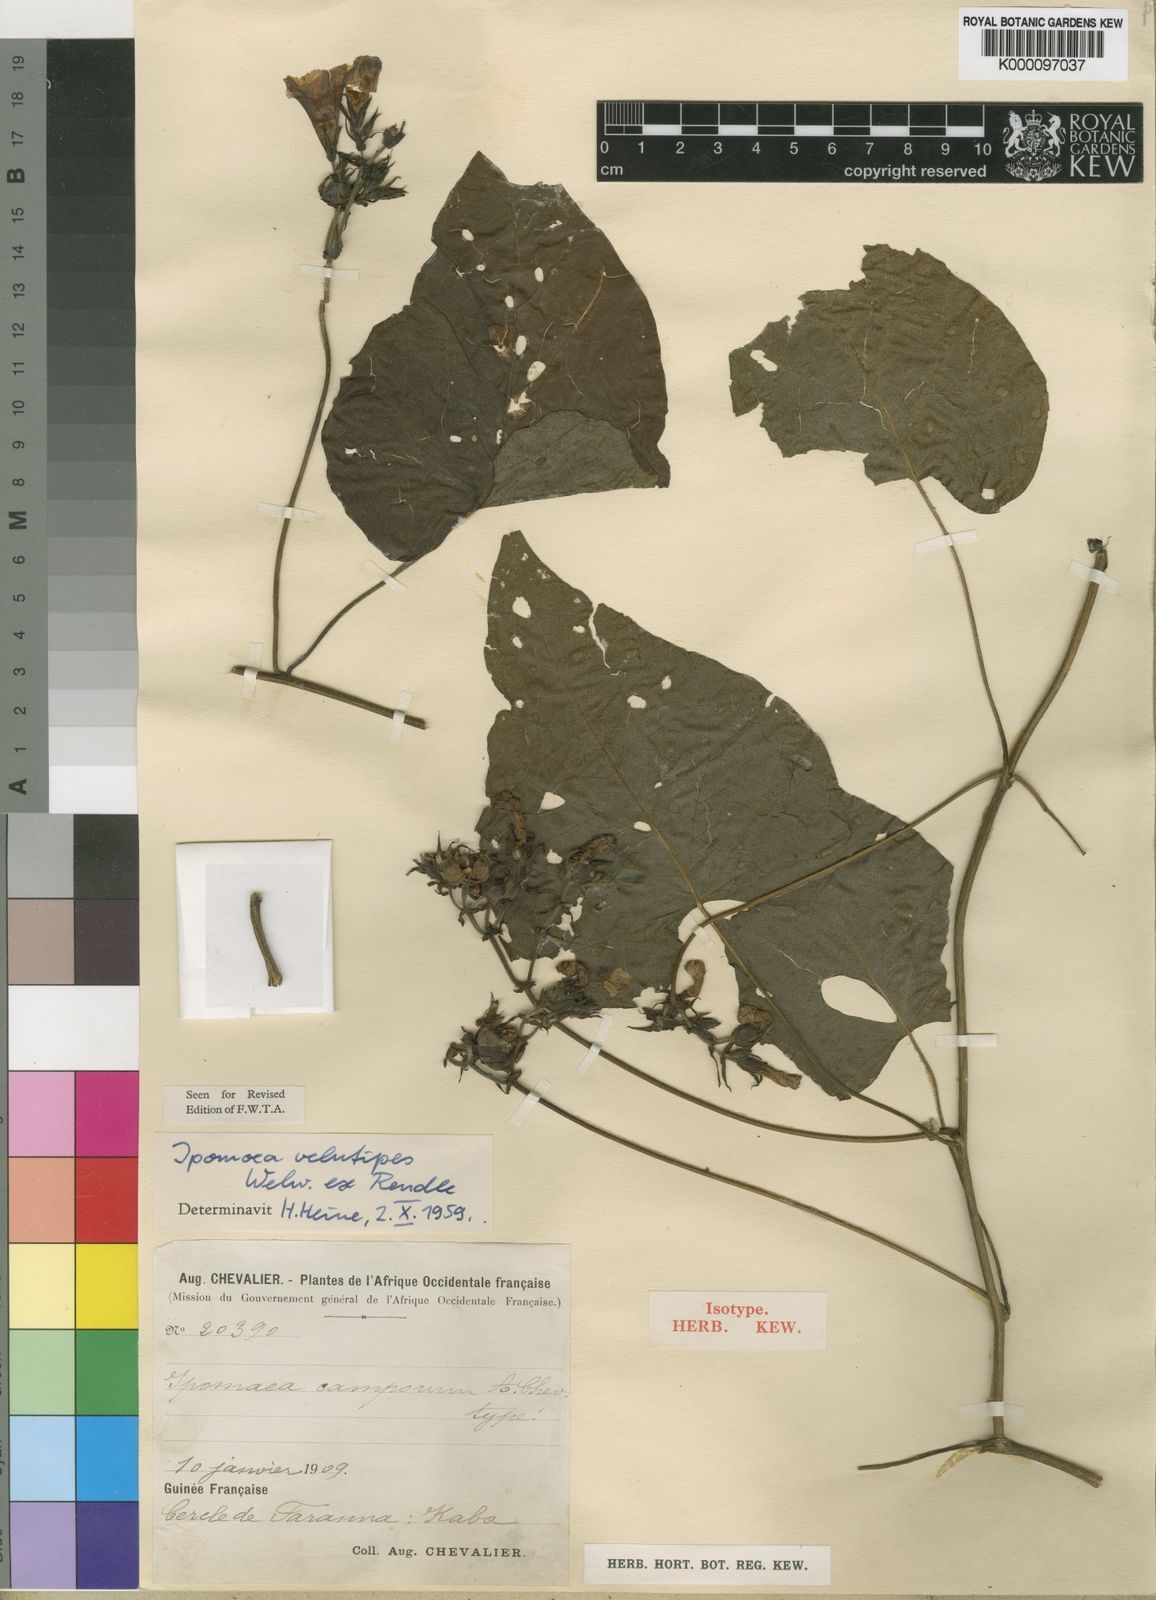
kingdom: Plantae
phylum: Tracheophyta
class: Magnoliopsida
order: Solanales
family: Convolvulaceae
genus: Ipomoea
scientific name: Ipomoea chrysochaetia
